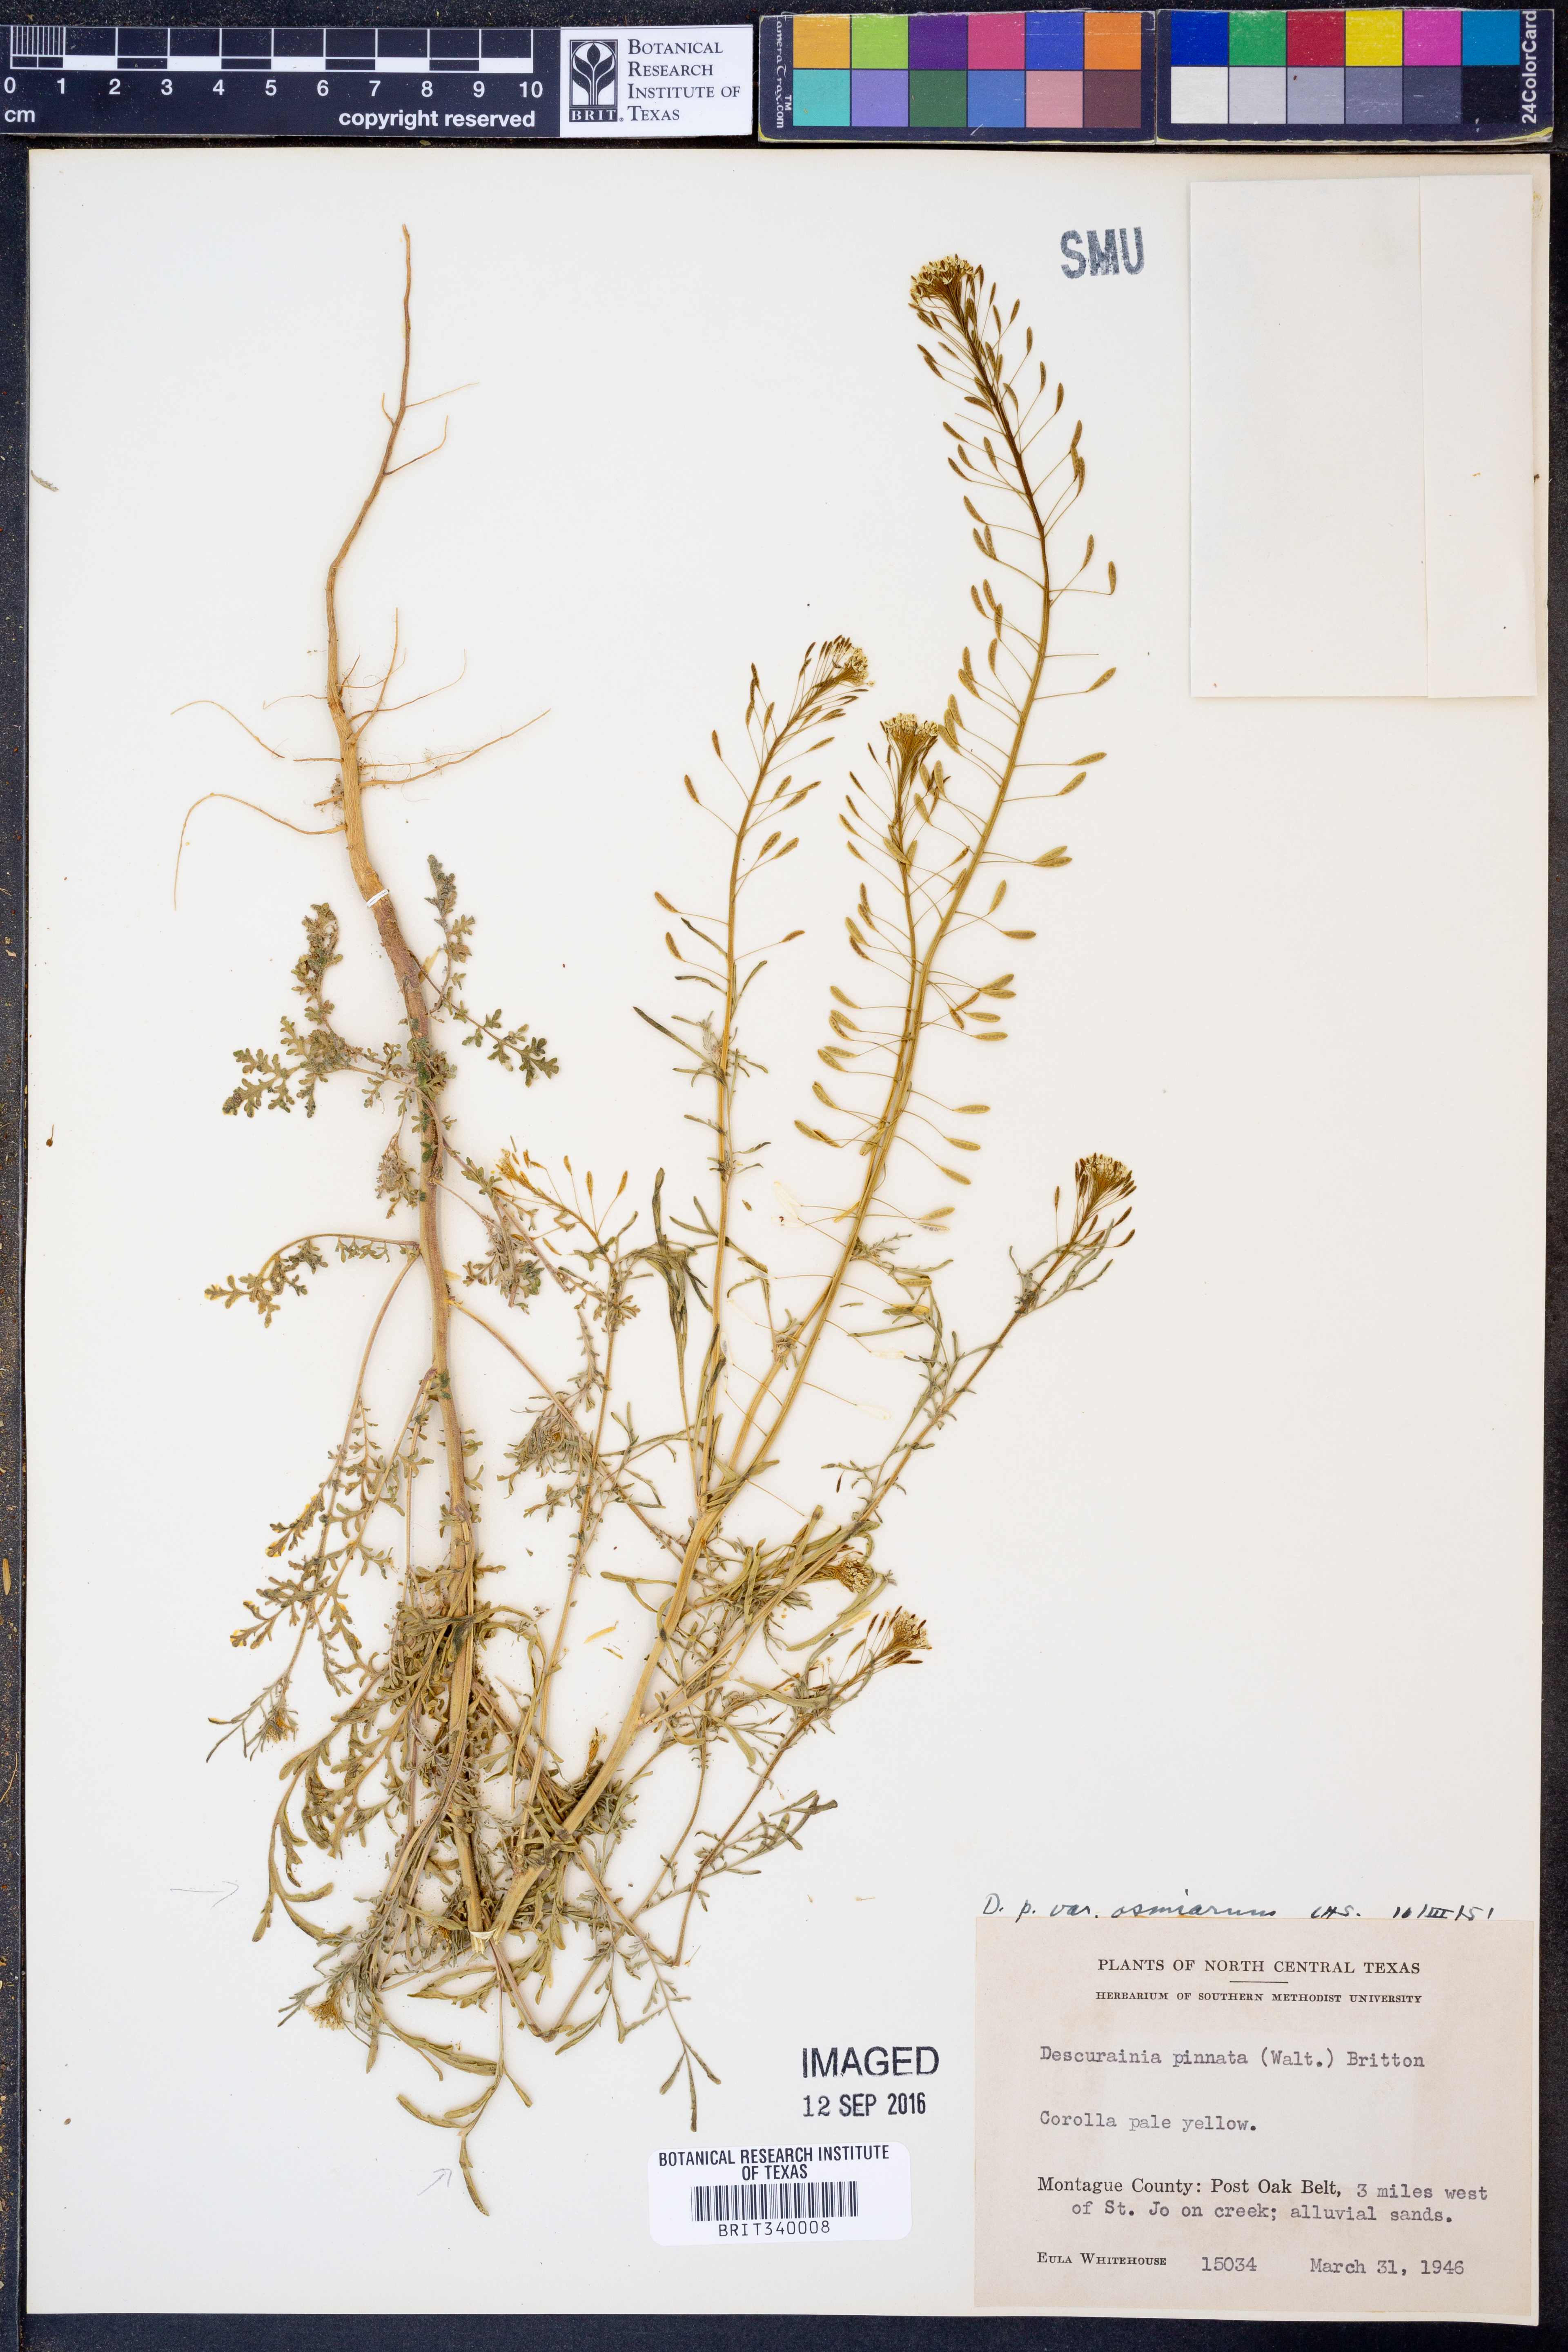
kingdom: Plantae
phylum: Tracheophyta
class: Magnoliopsida
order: Brassicales
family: Brassicaceae
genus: Descurainia
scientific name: Descurainia pinnata
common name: Western tansy mustard
